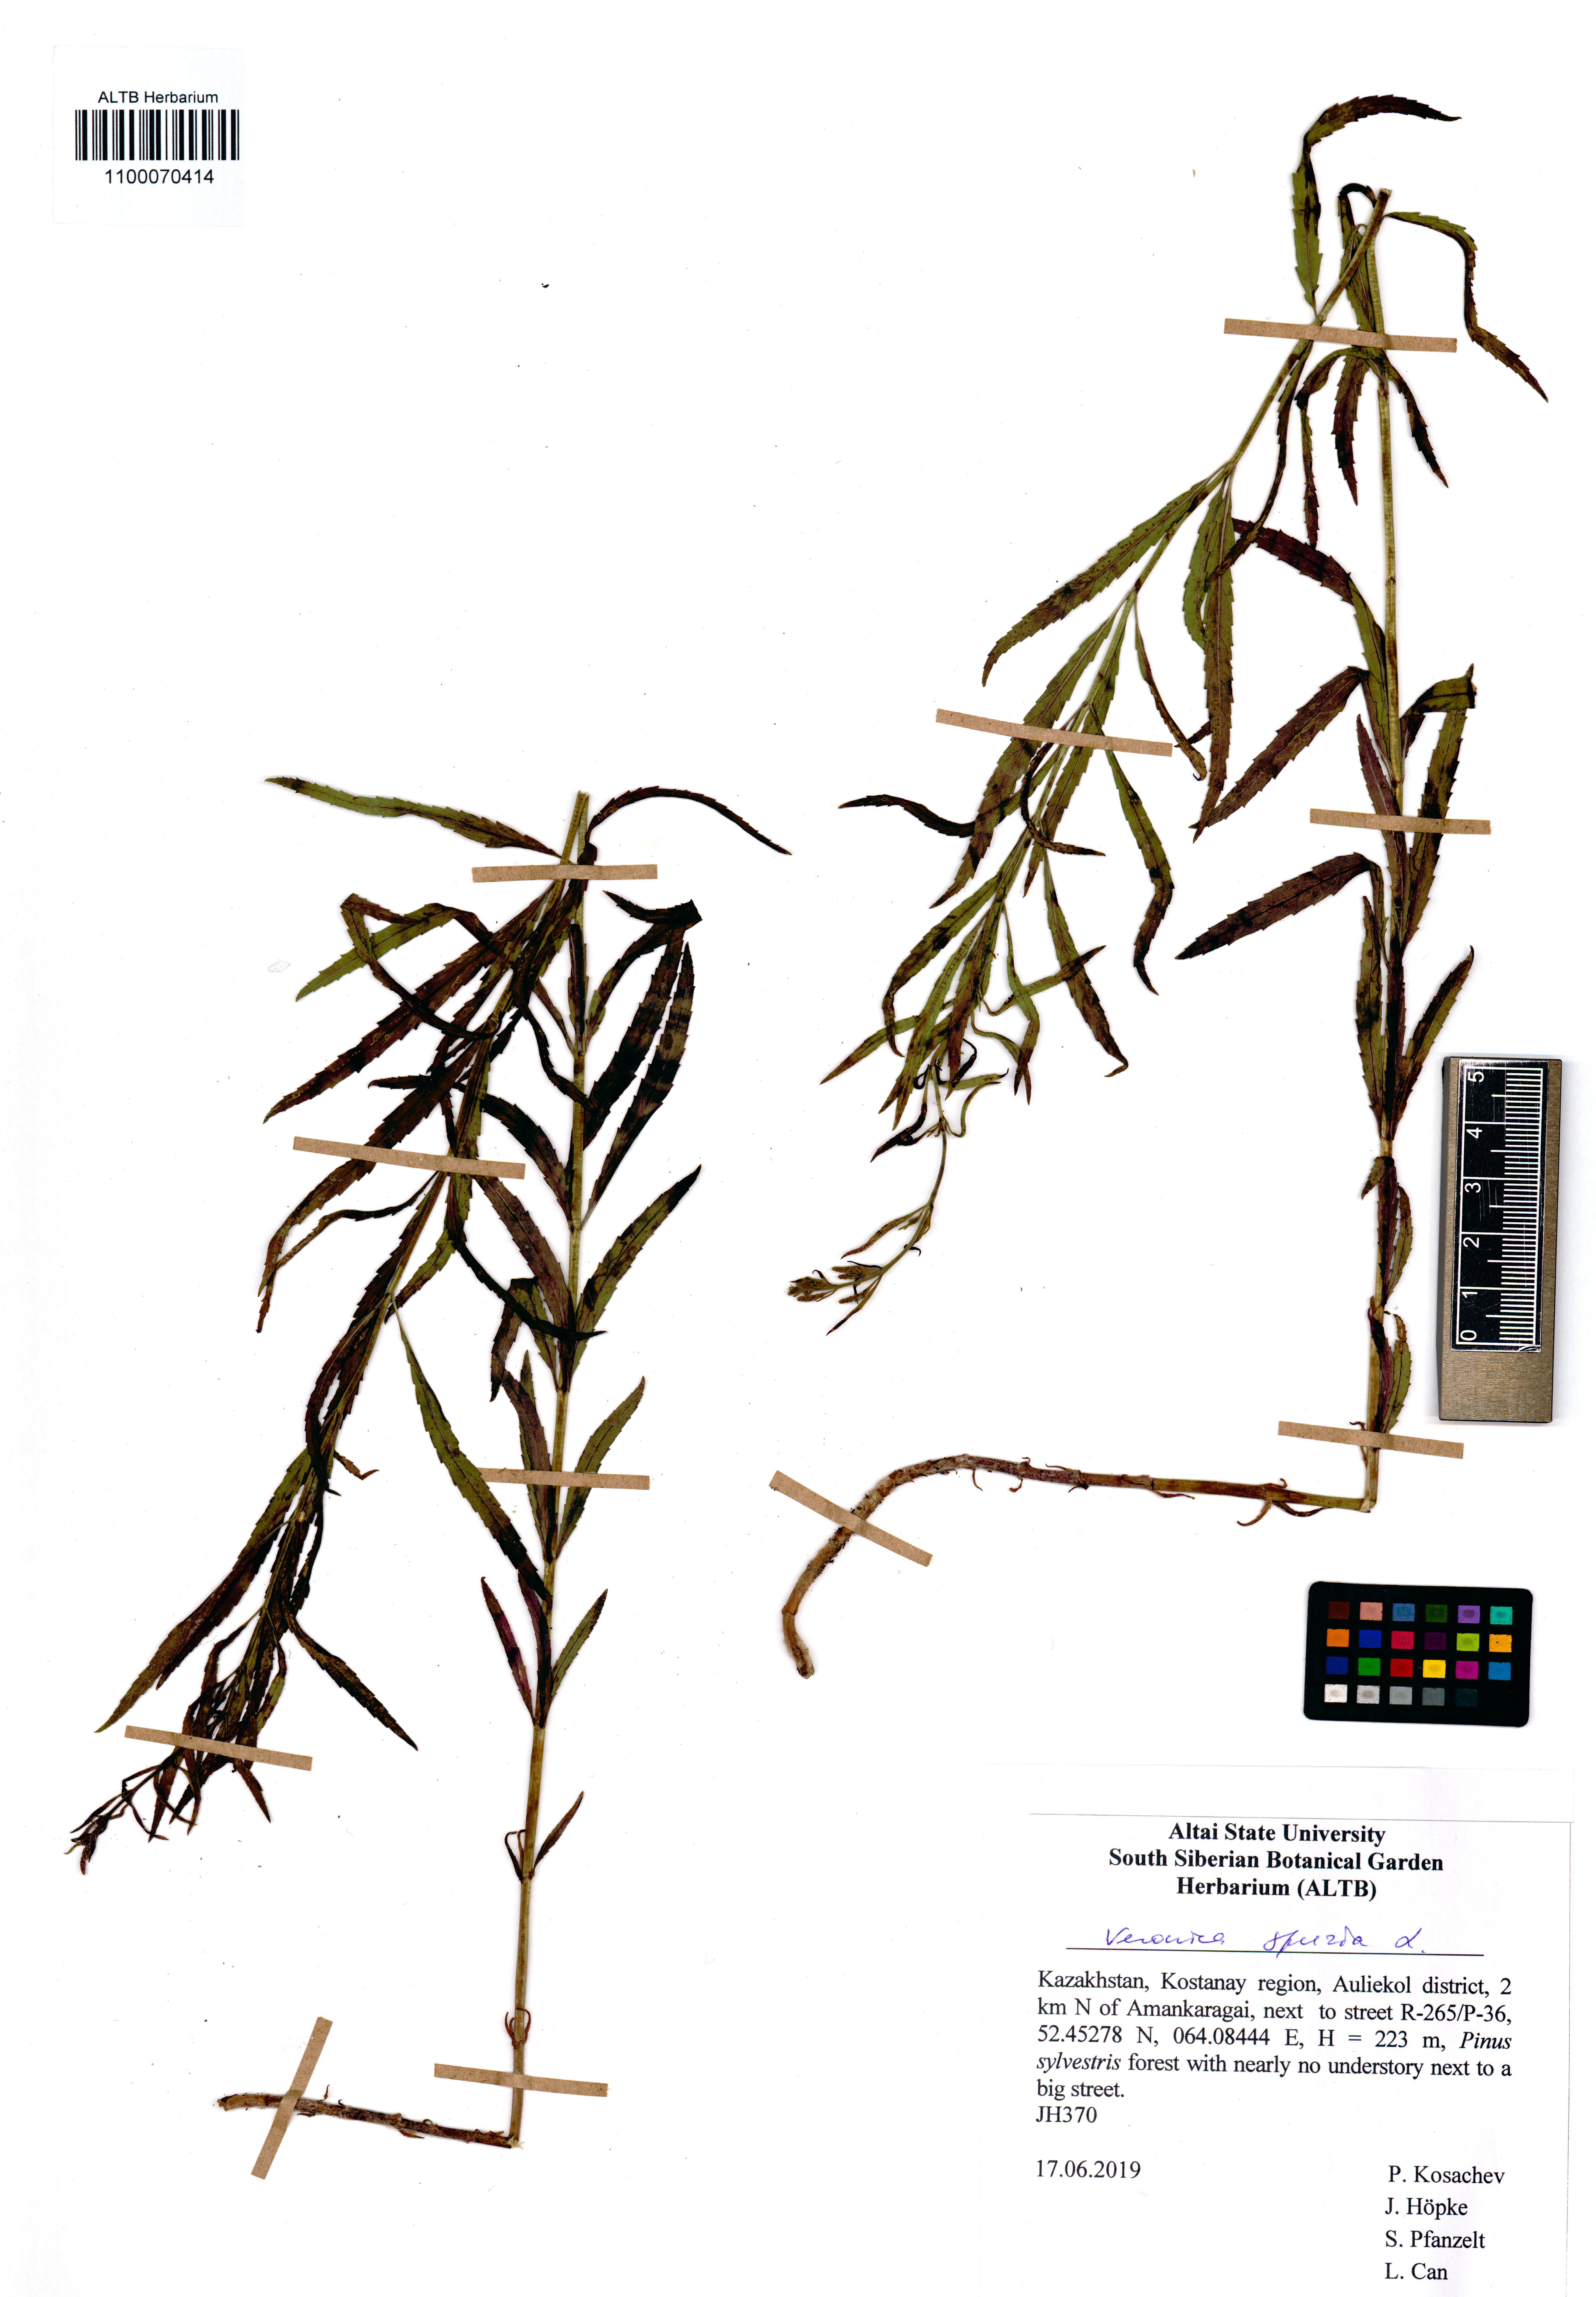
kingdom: Plantae
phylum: Tracheophyta
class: Magnoliopsida
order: Lamiales
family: Plantaginaceae
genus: Veronica
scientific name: Veronica spuria
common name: Bastard speedwell
